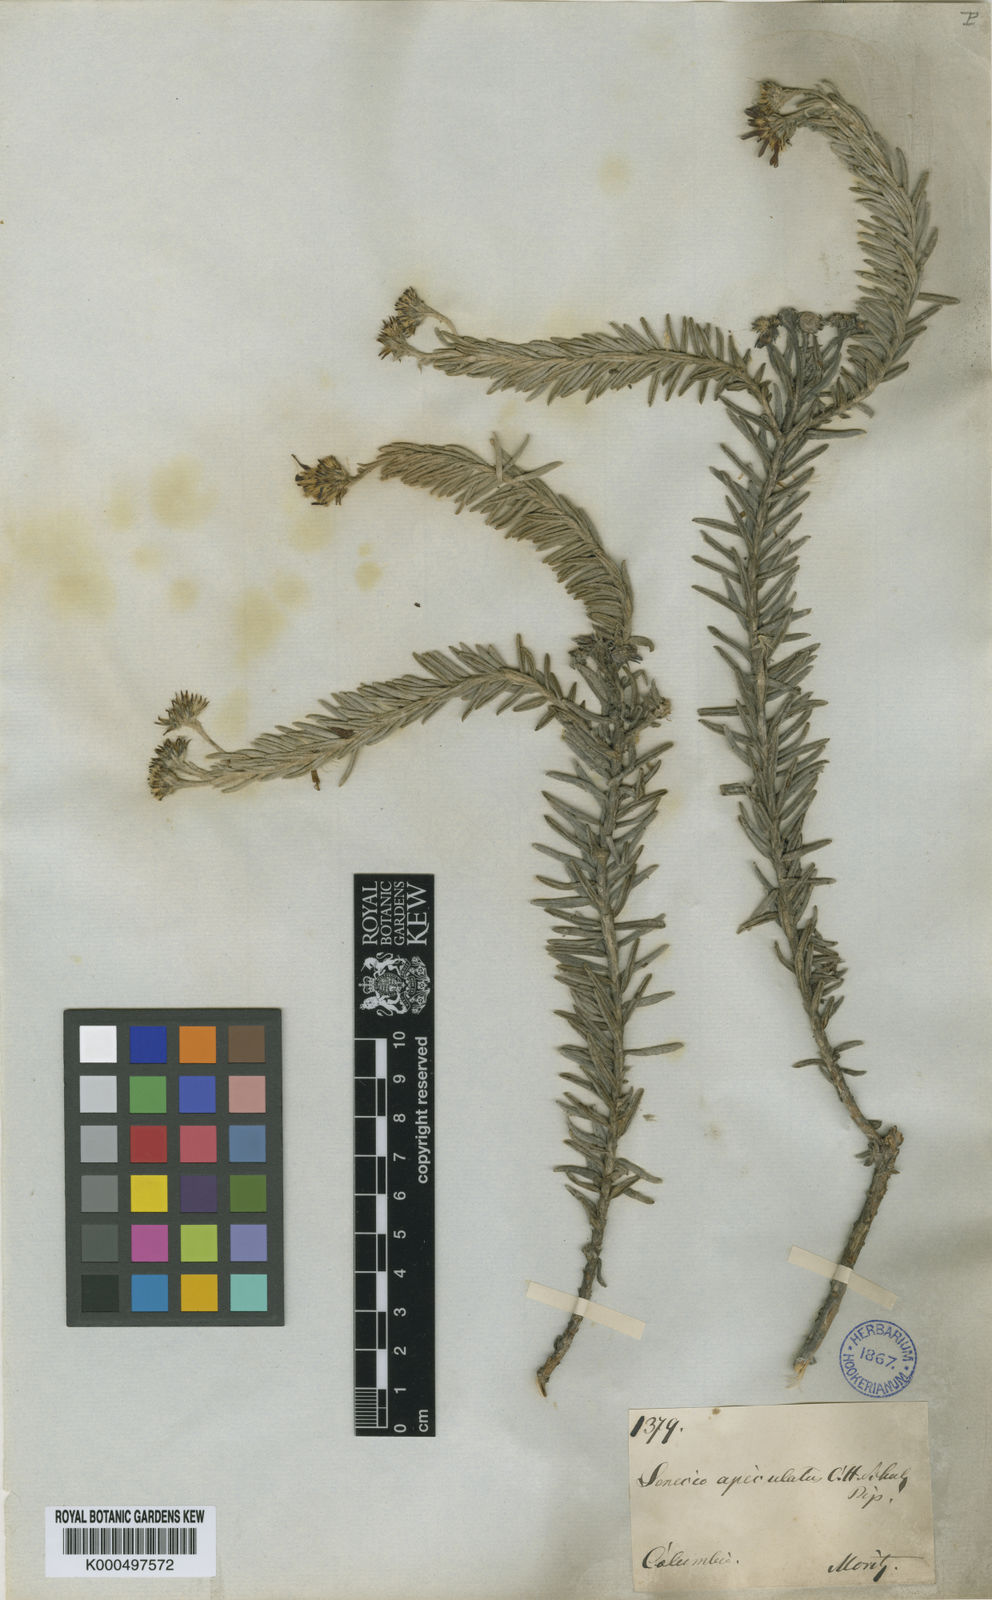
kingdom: Plantae
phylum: Tracheophyta
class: Magnoliopsida
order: Asterales
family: Asteraceae
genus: Monticalia
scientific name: Monticalia apiculata
